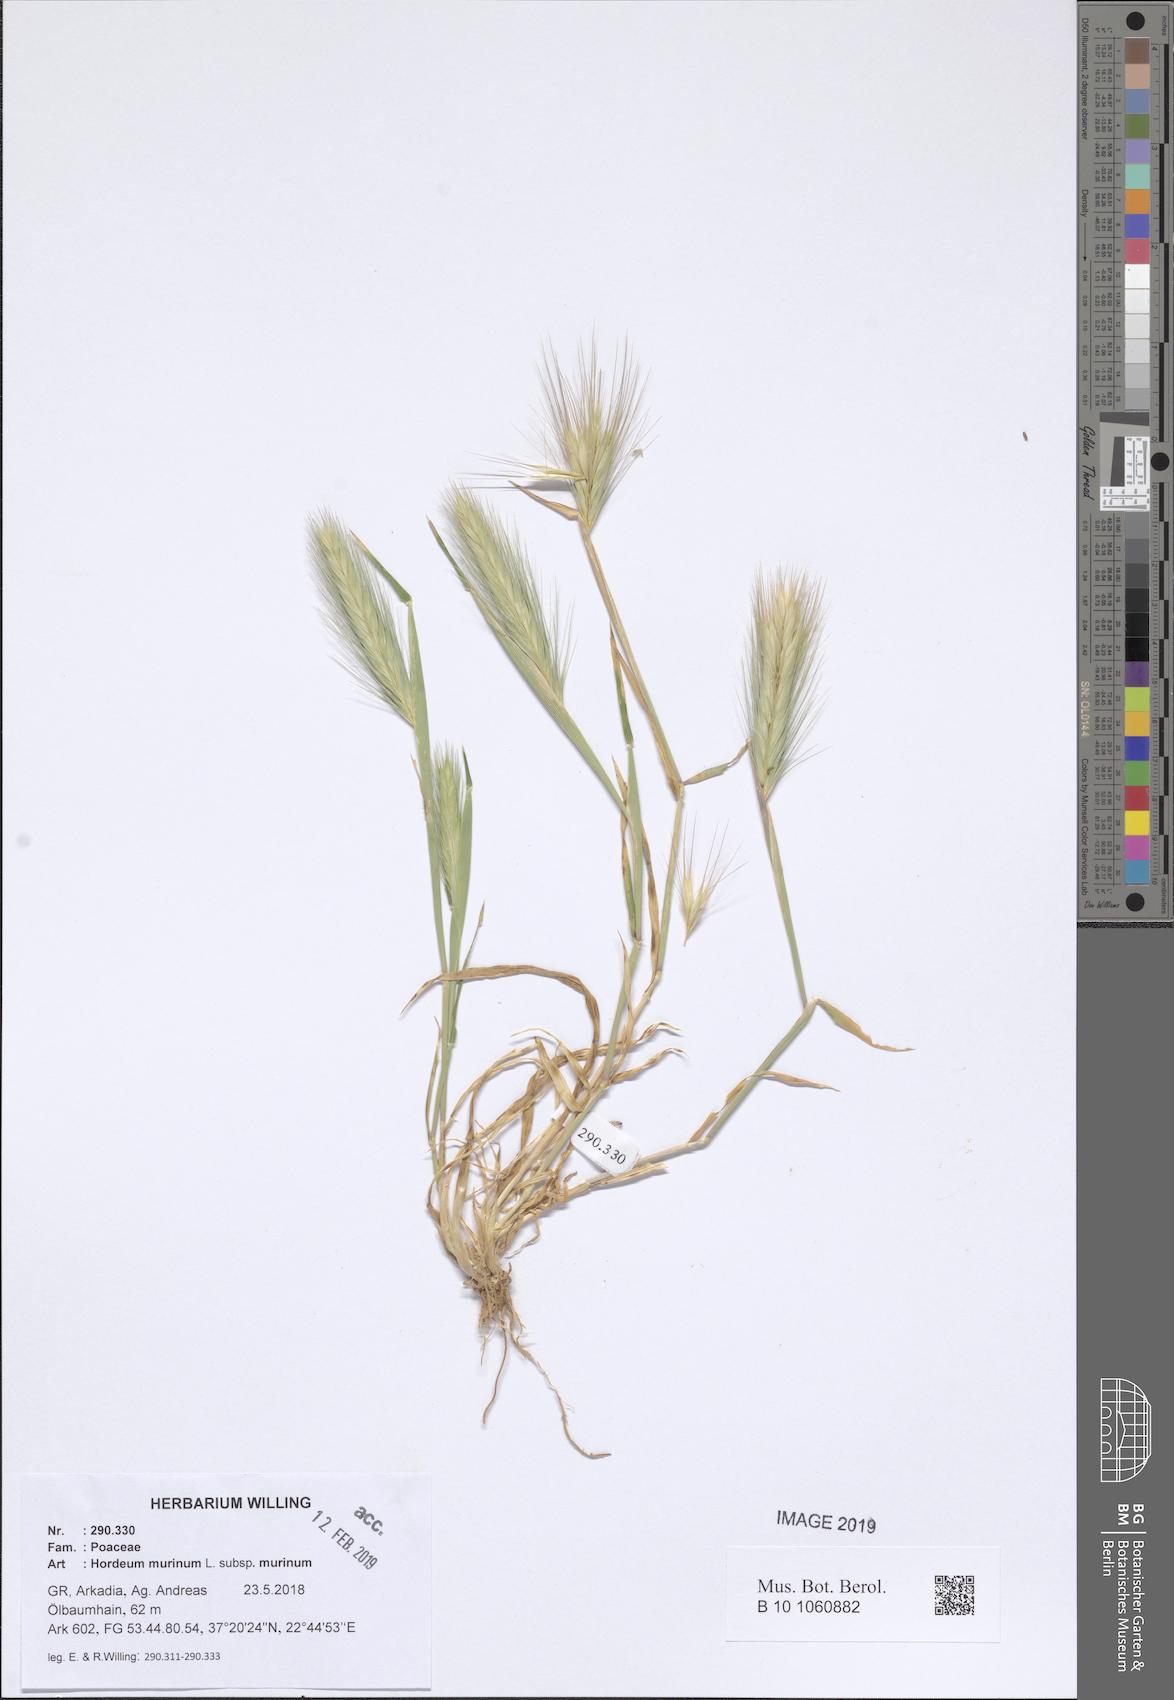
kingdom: Plantae
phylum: Tracheophyta
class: Liliopsida
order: Poales
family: Poaceae
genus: Hordeum
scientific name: Hordeum murinum
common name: Wall barley
